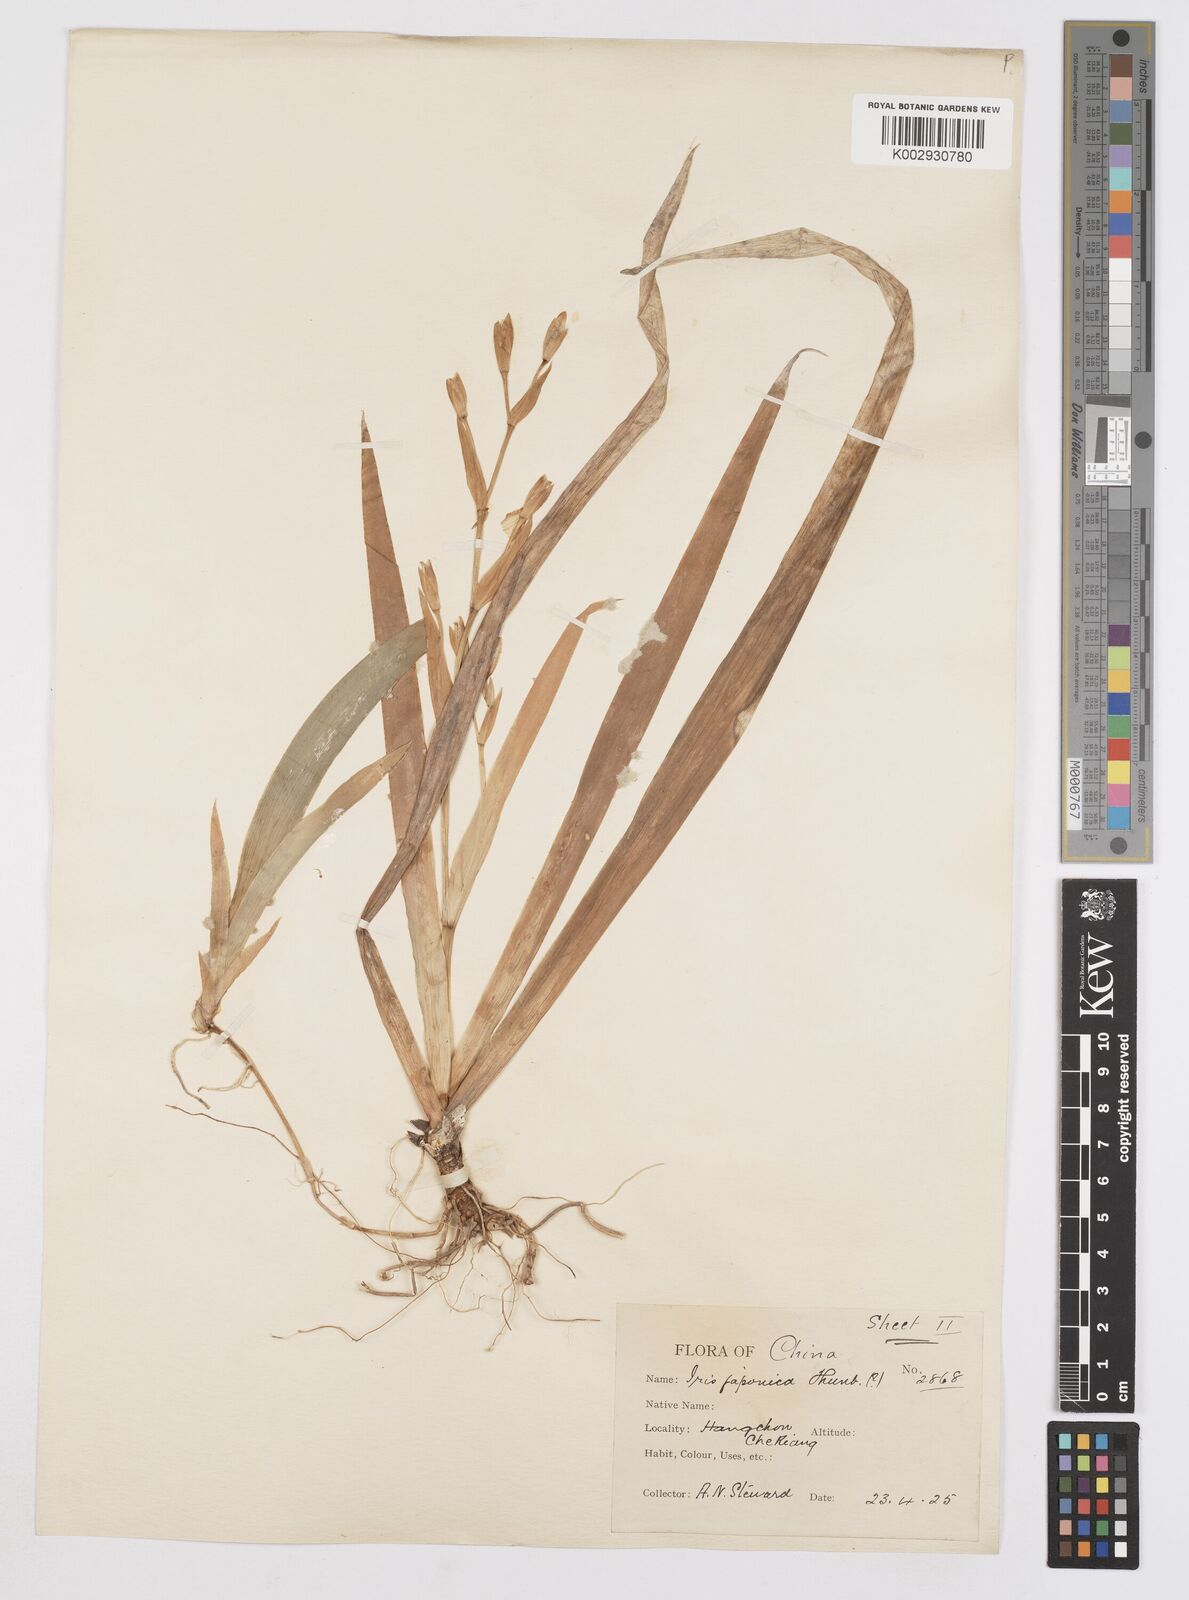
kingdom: Plantae
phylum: Tracheophyta
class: Liliopsida
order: Asparagales
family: Iridaceae
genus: Iris
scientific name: Iris japonica
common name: Butterfly-flower
